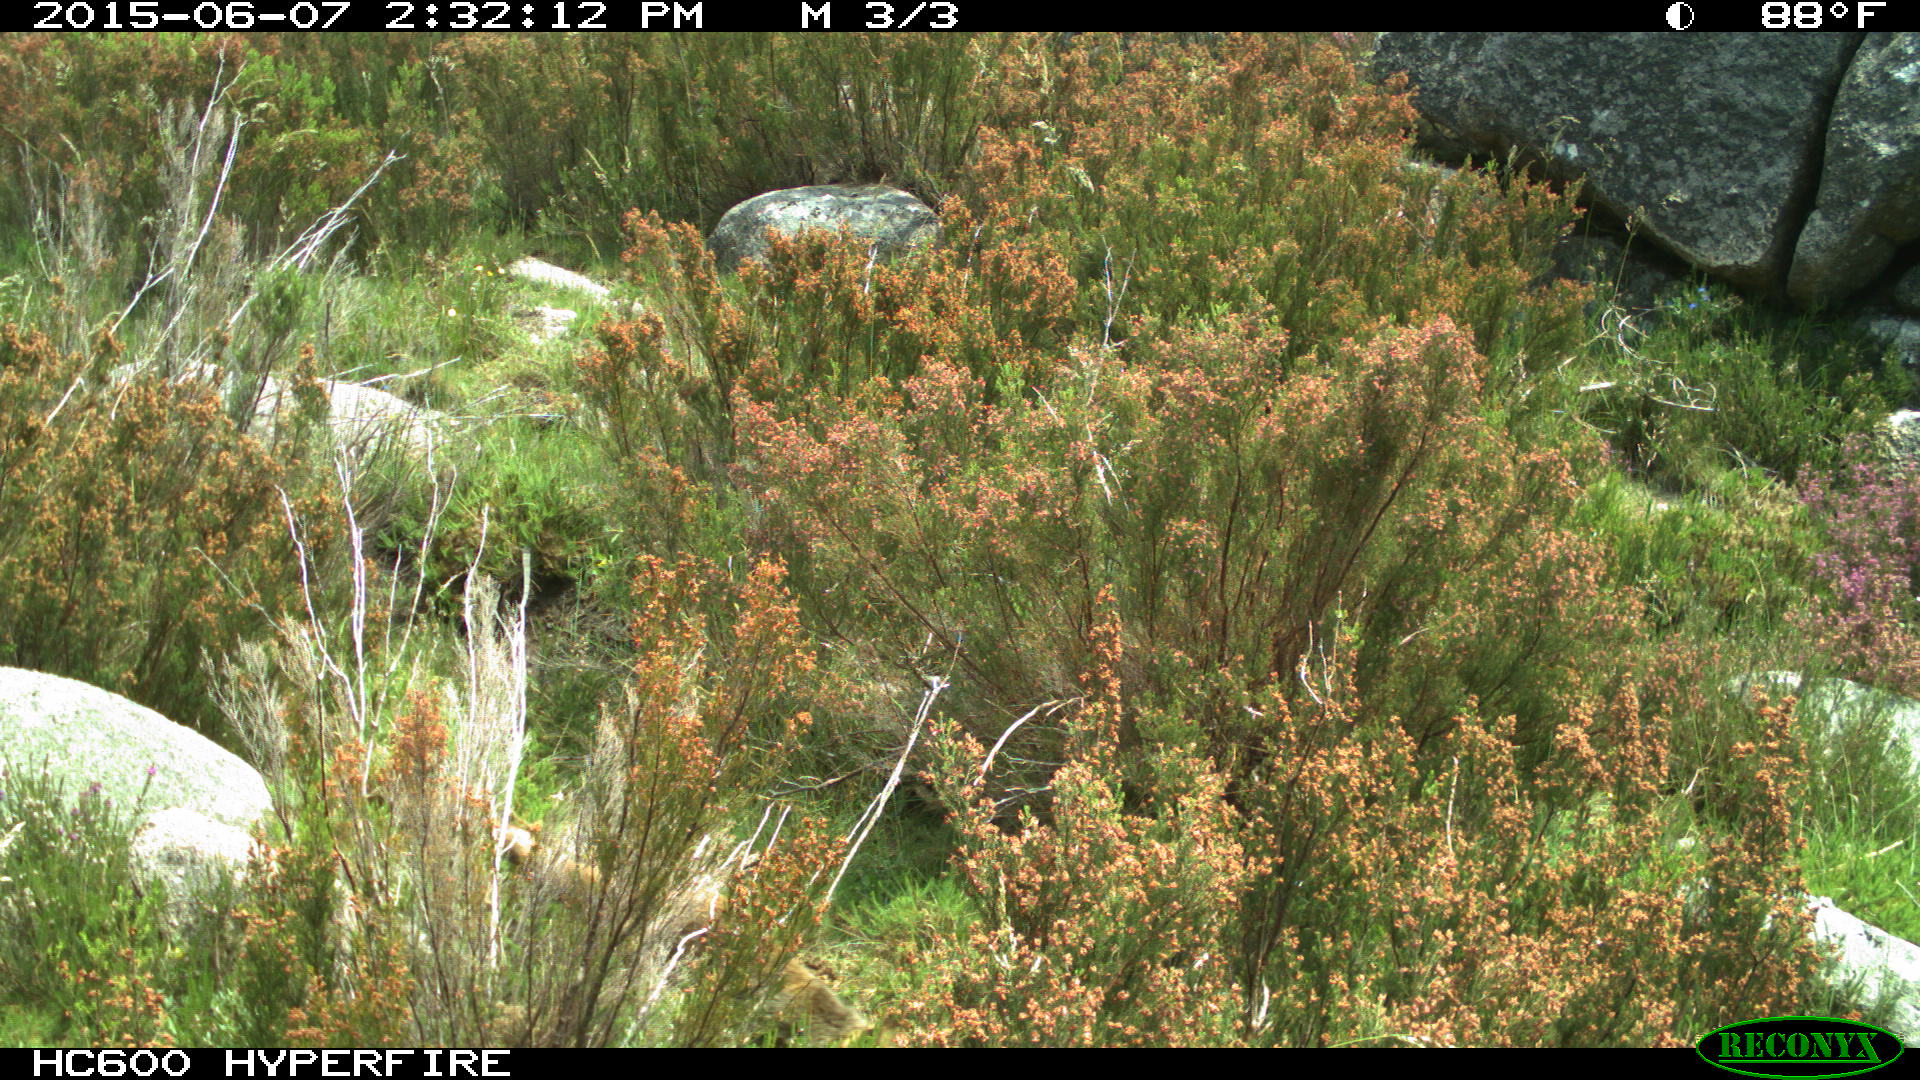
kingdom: Animalia
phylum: Chordata
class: Mammalia
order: Carnivora
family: Canidae
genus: Vulpes
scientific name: Vulpes vulpes
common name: Red fox
